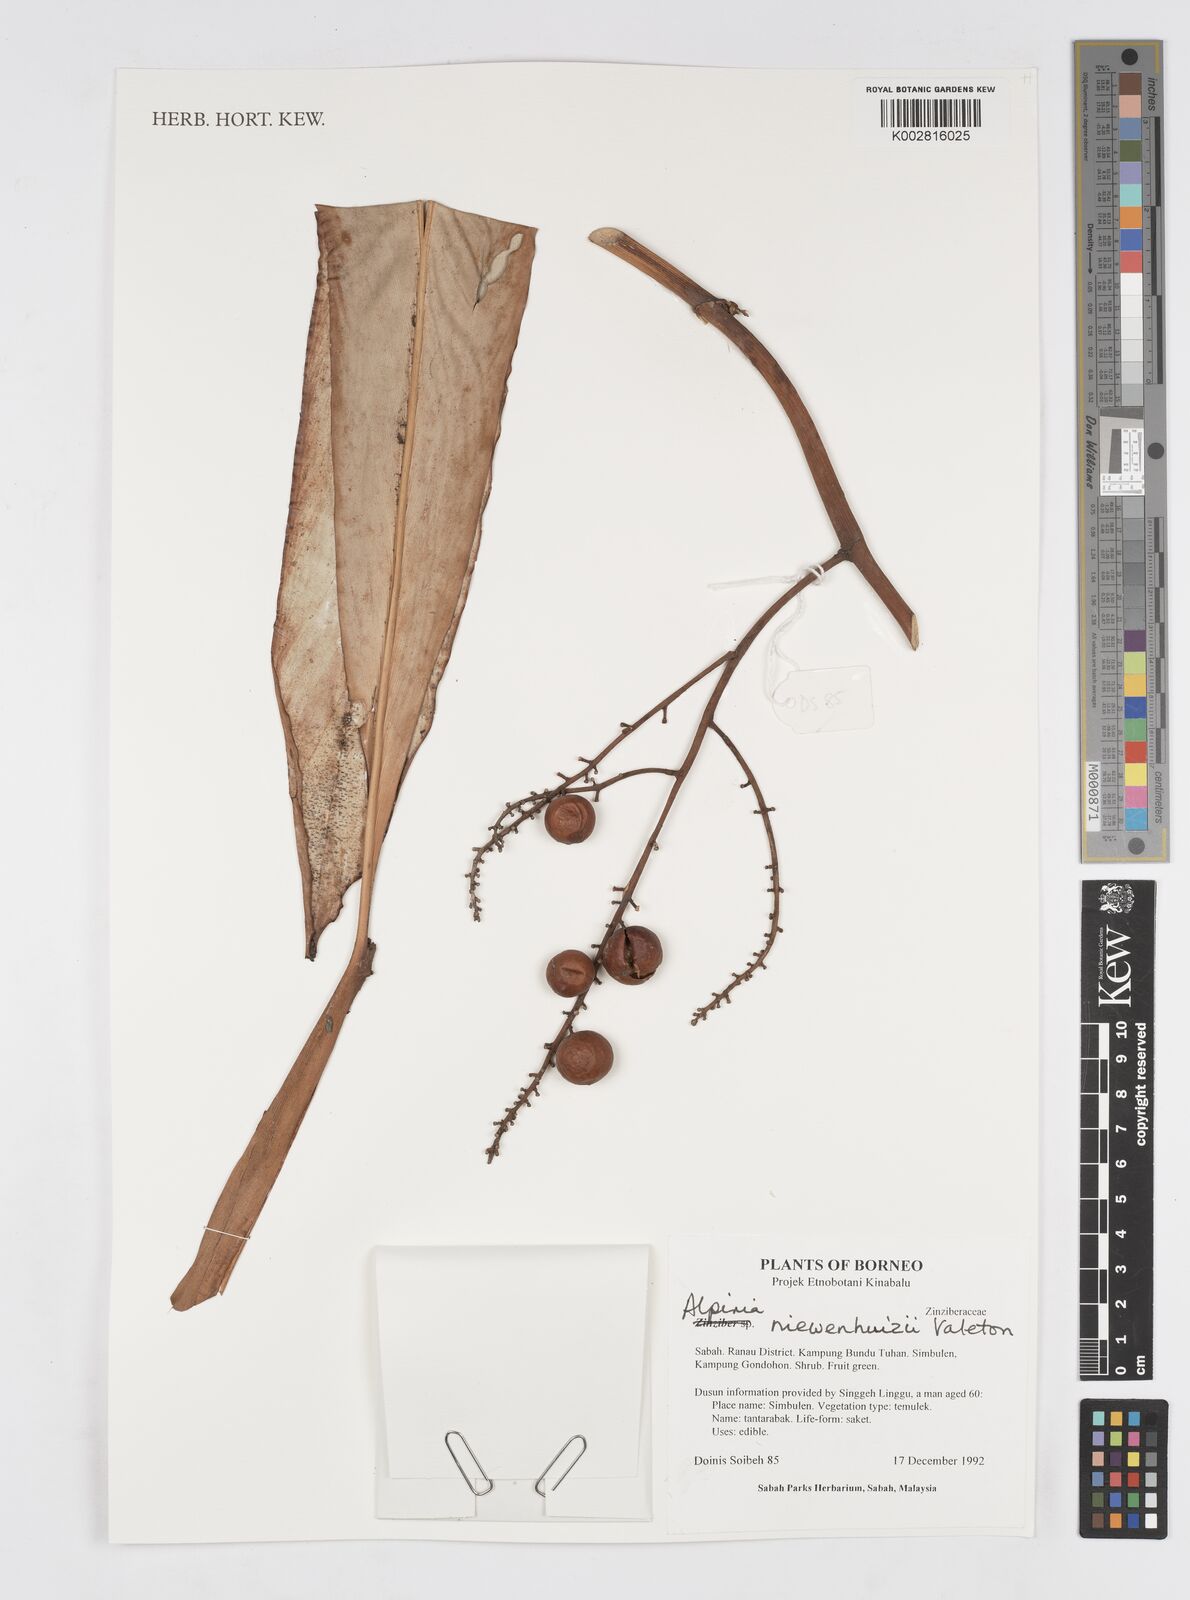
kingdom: Plantae
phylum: Tracheophyta
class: Liliopsida
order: Zingiberales
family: Zingiberaceae
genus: Alpinia
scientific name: Alpinia nieuwenhuizii
